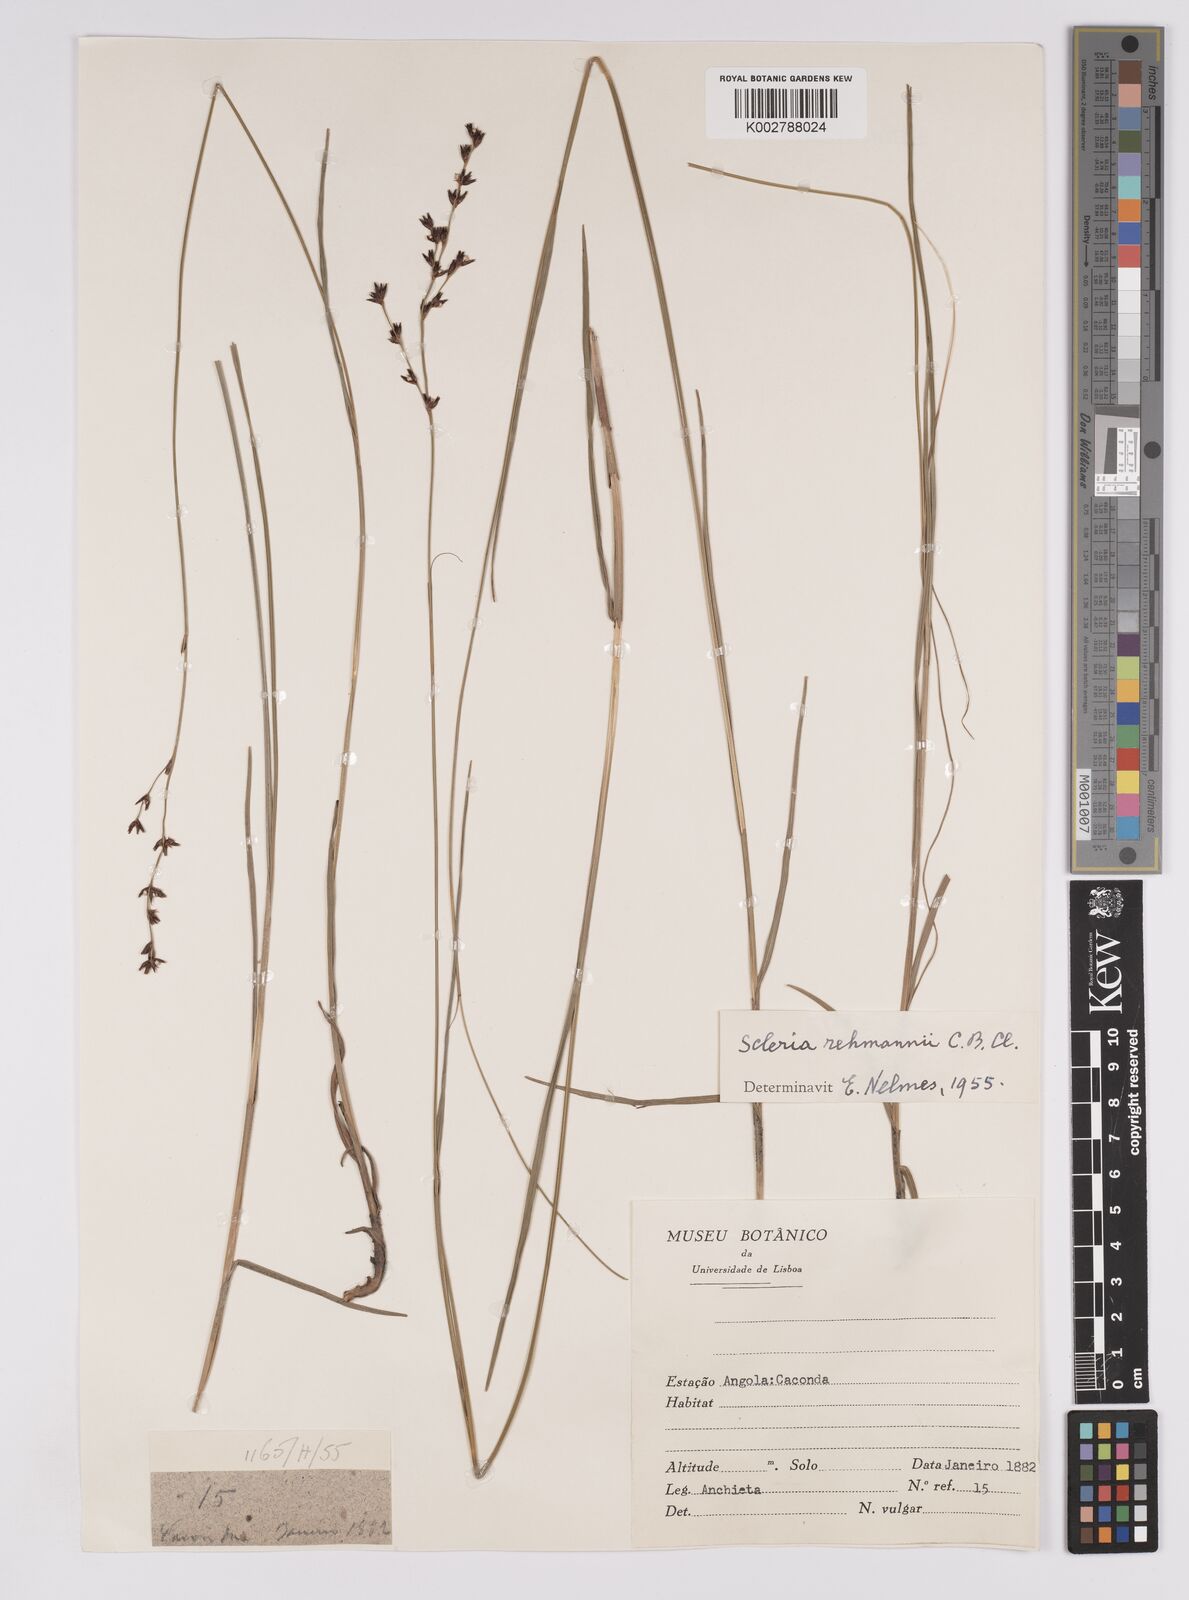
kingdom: Plantae
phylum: Tracheophyta
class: Liliopsida
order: Poales
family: Cyperaceae
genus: Scleria
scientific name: Scleria rehmannii
